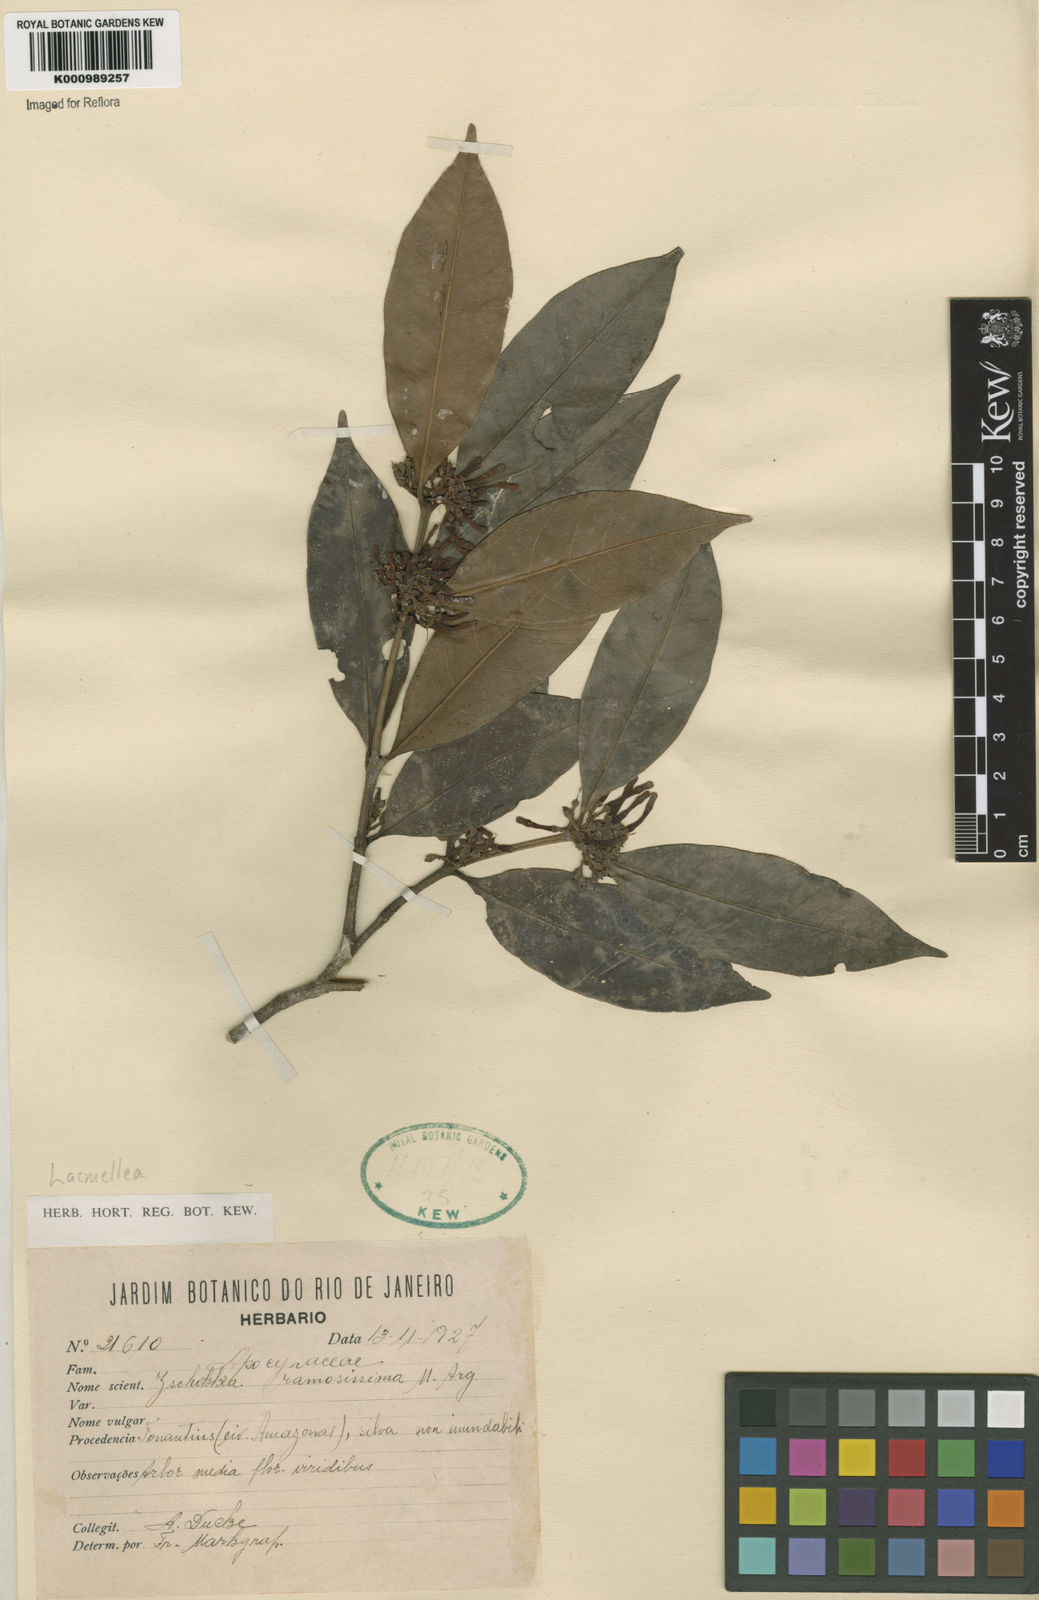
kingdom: Plantae
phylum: Tracheophyta
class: Magnoliopsida
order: Gentianales
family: Apocynaceae
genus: Lacmellea
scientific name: Lacmellea
